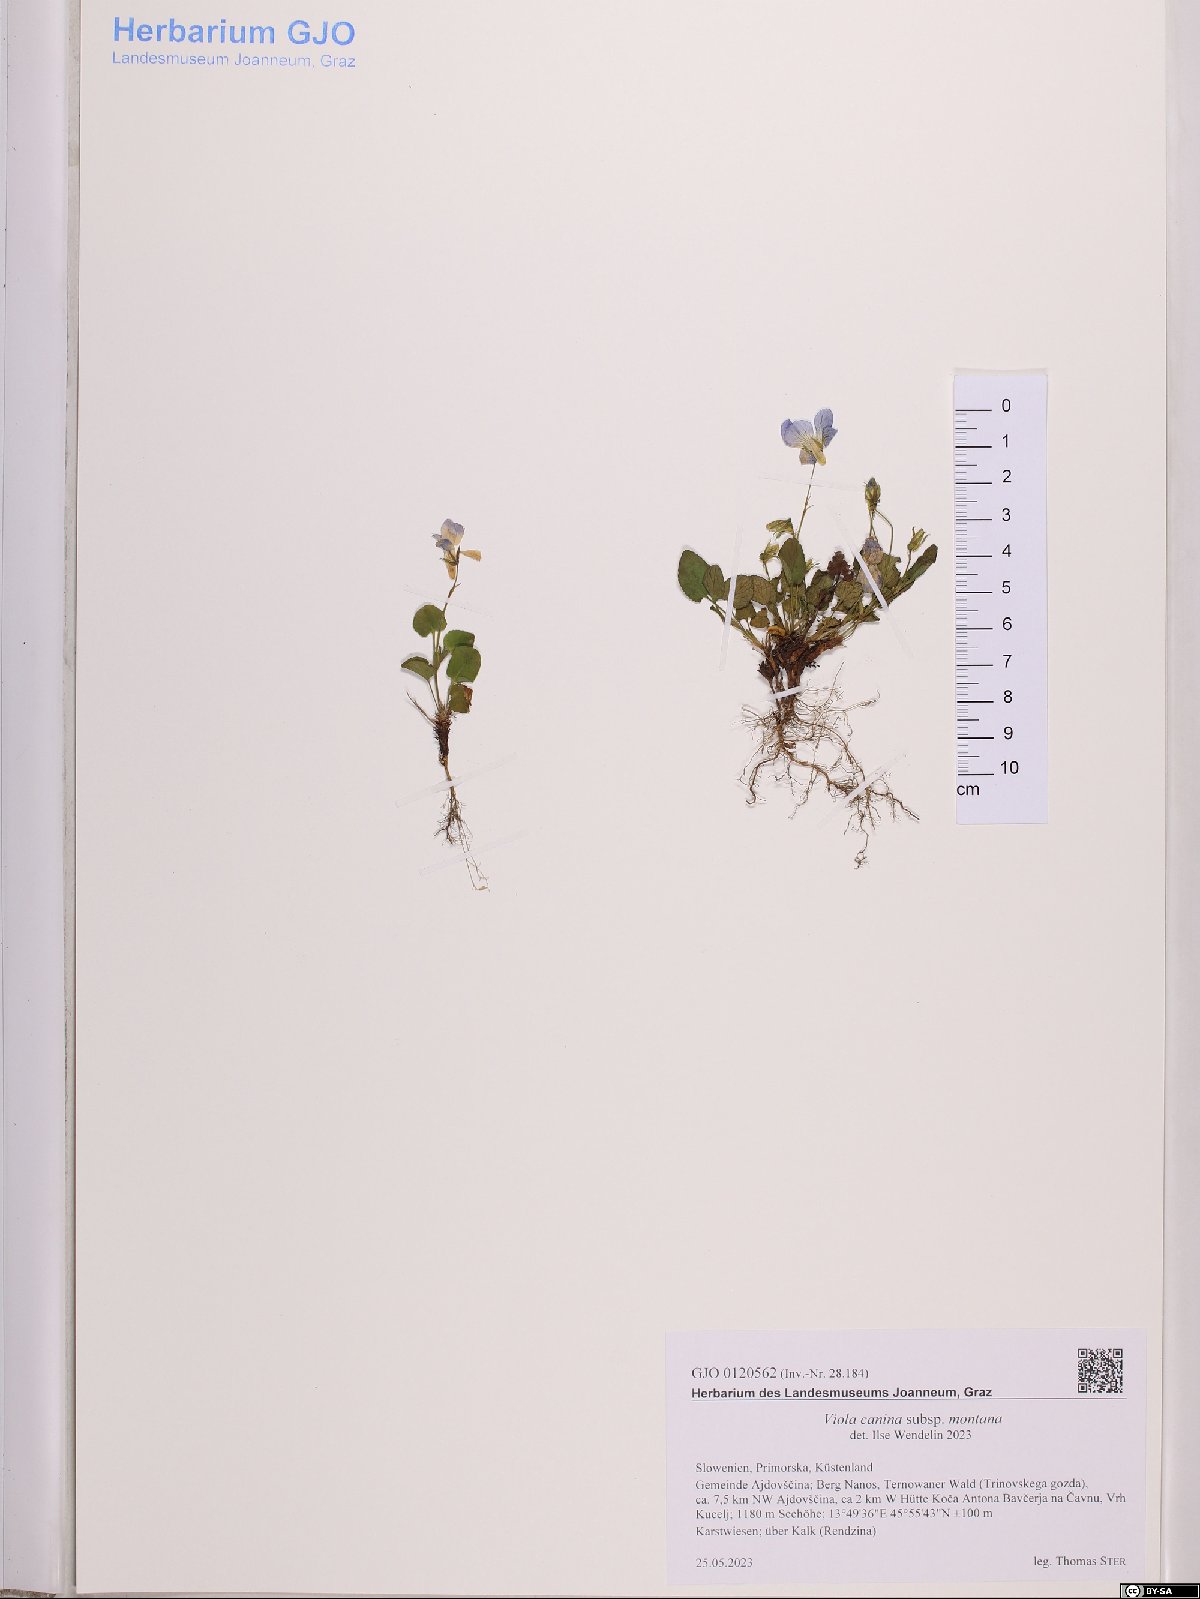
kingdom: Plantae
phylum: Tracheophyta
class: Magnoliopsida
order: Malpighiales
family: Violaceae
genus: Viola
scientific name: Viola ruppii
